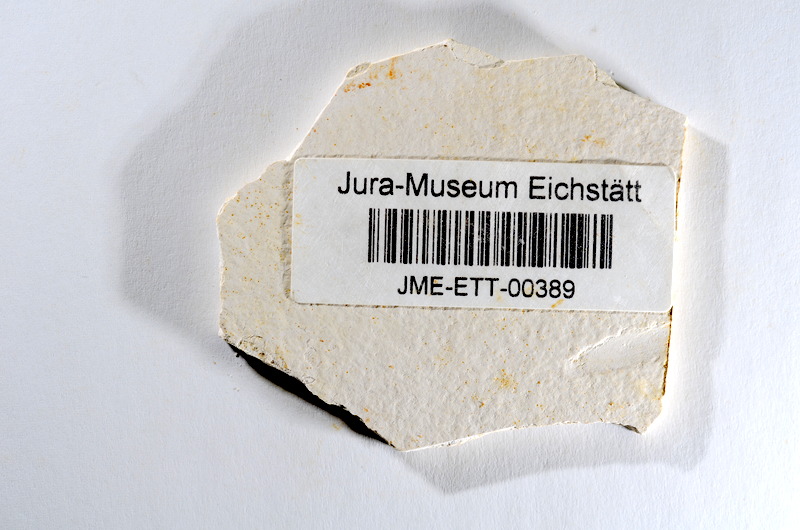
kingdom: Animalia
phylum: Chordata
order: Salmoniformes
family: Orthogonikleithridae
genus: Orthogonikleithrus
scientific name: Orthogonikleithrus hoelli
